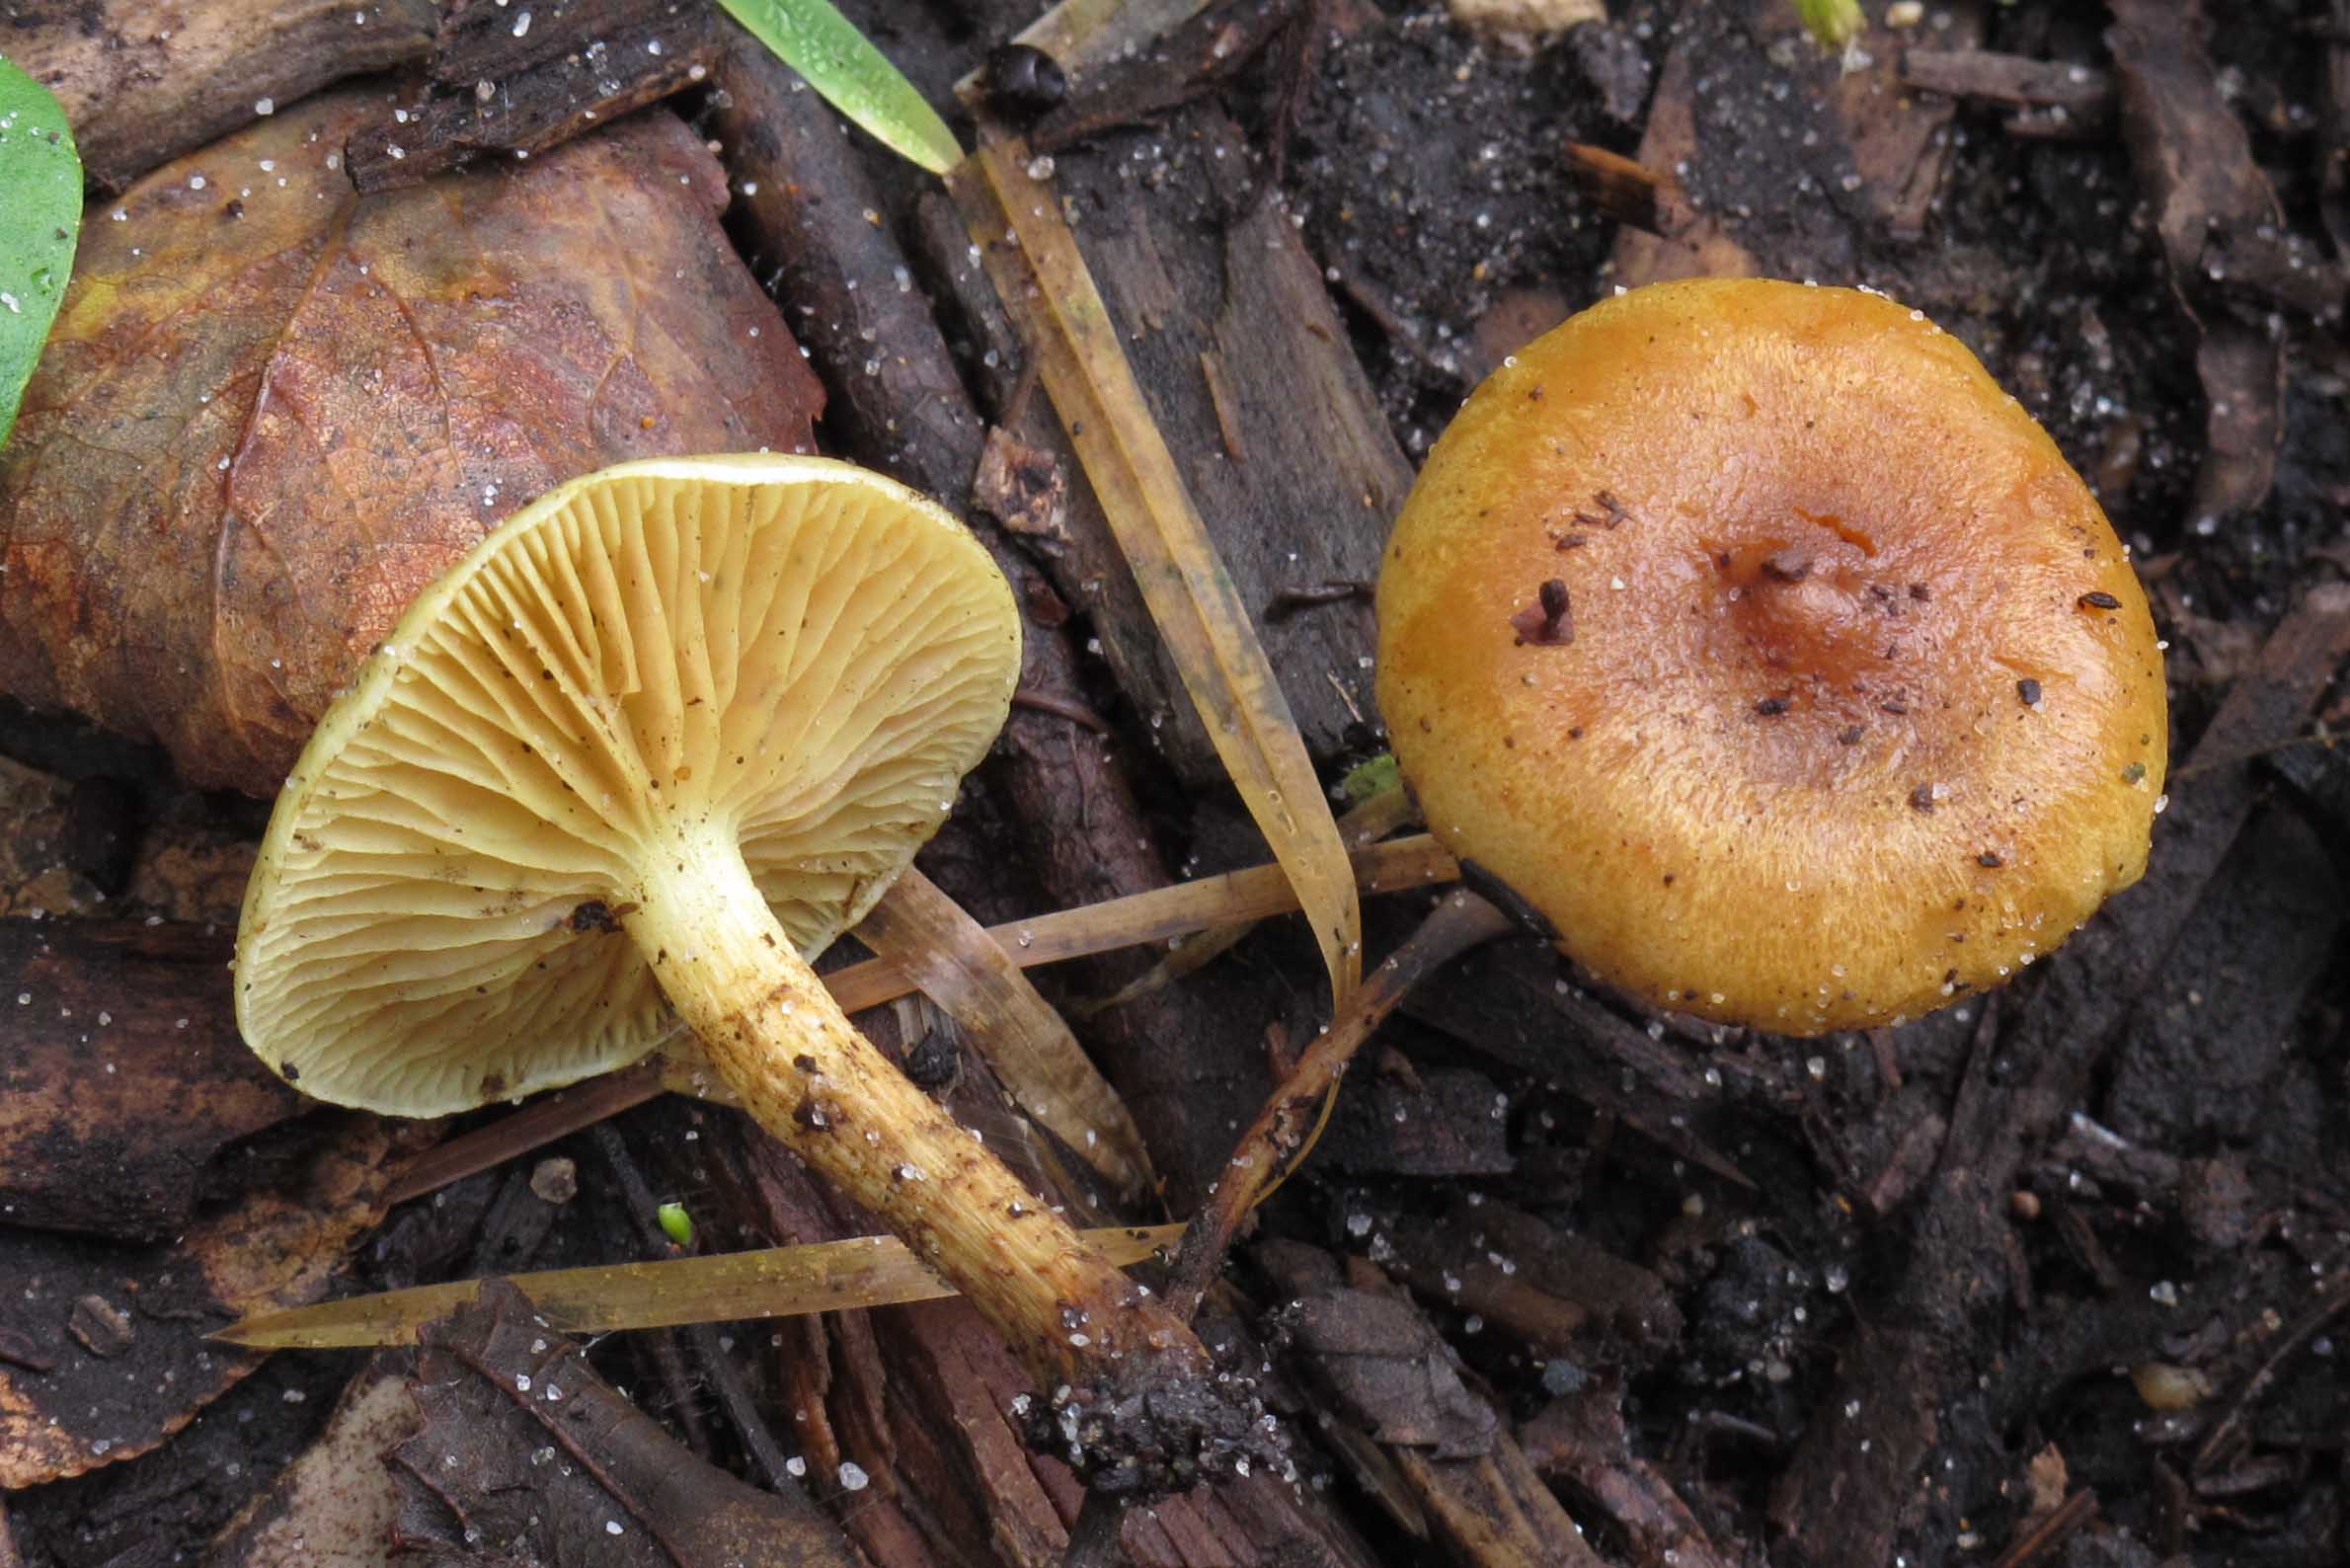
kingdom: Fungi
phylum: Basidiomycota
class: Agaricomycetes
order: Agaricales
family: Strophariaceae
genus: Pholiota
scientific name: Pholiota conissans
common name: pile-skælhat
